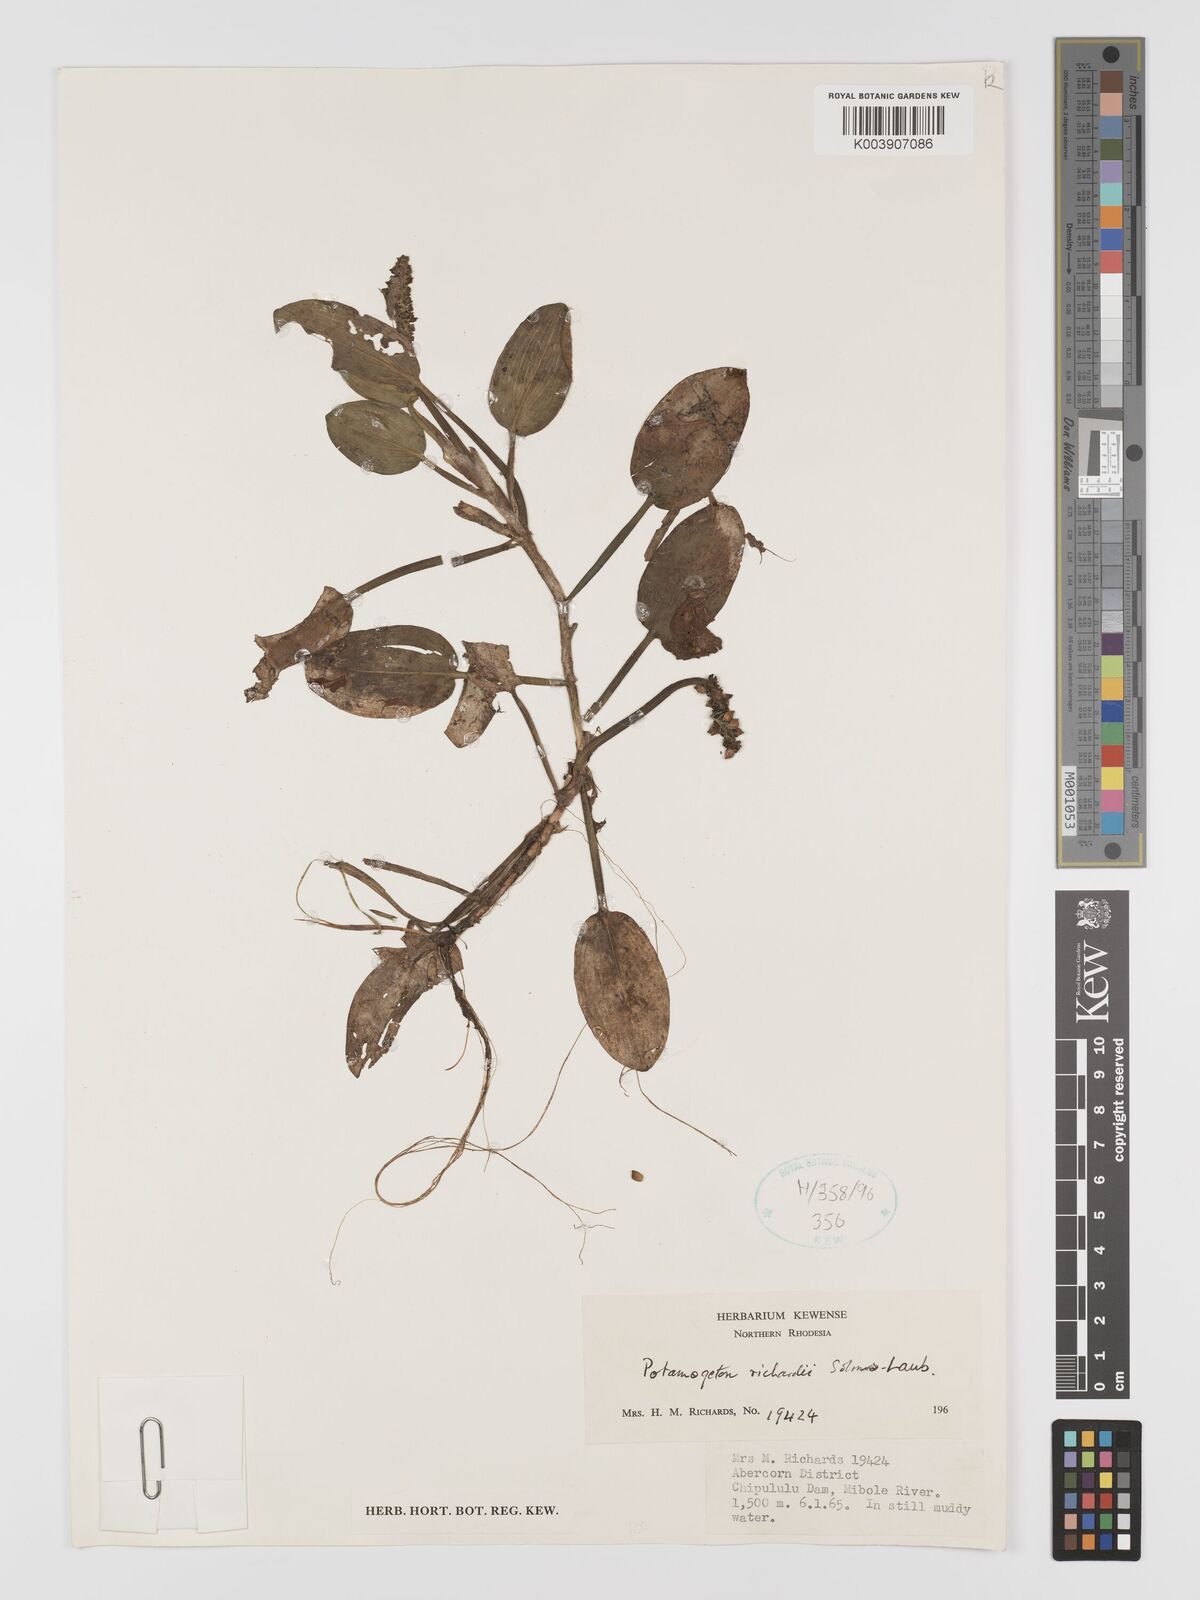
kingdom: Plantae
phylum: Tracheophyta
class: Liliopsida
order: Alismatales
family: Potamogetonaceae
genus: Potamogeton
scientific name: Potamogeton nodosus
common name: Loddon pondweed
